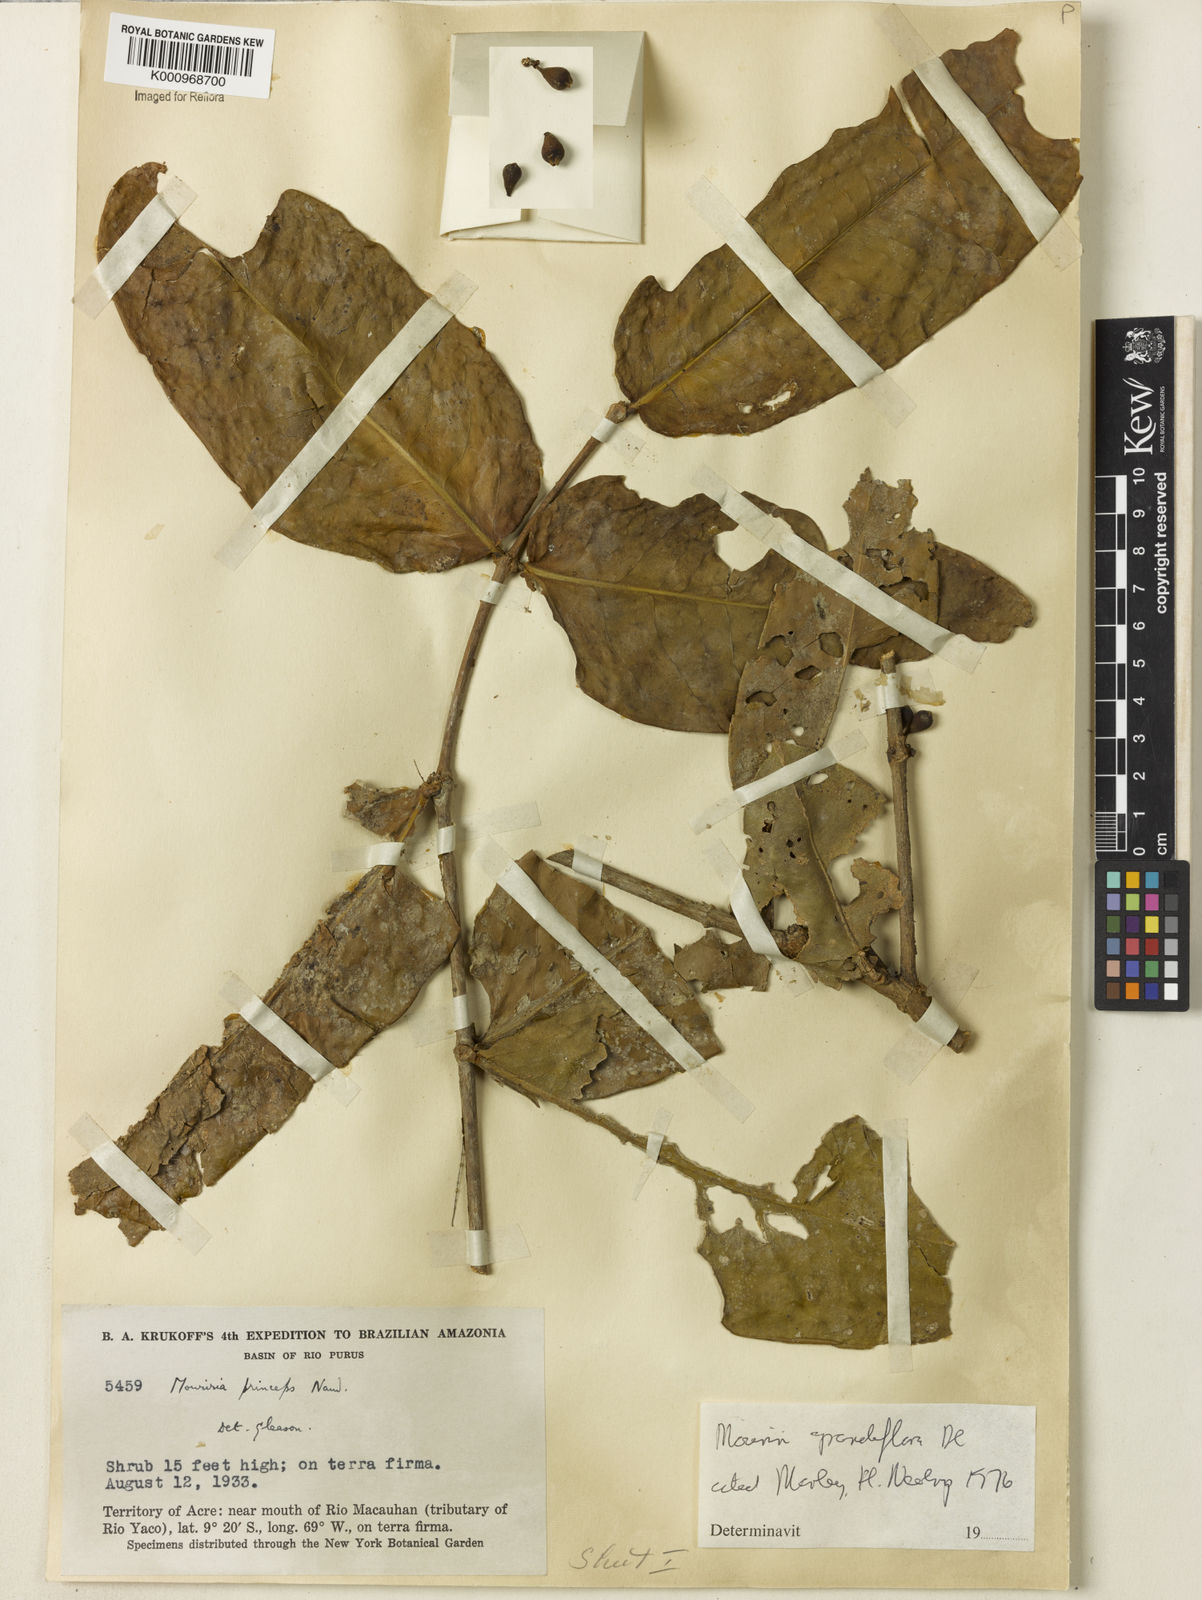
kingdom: Plantae
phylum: Tracheophyta
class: Magnoliopsida
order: Myrtales
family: Melastomataceae
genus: Mouriri
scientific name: Mouriri grandiflora
